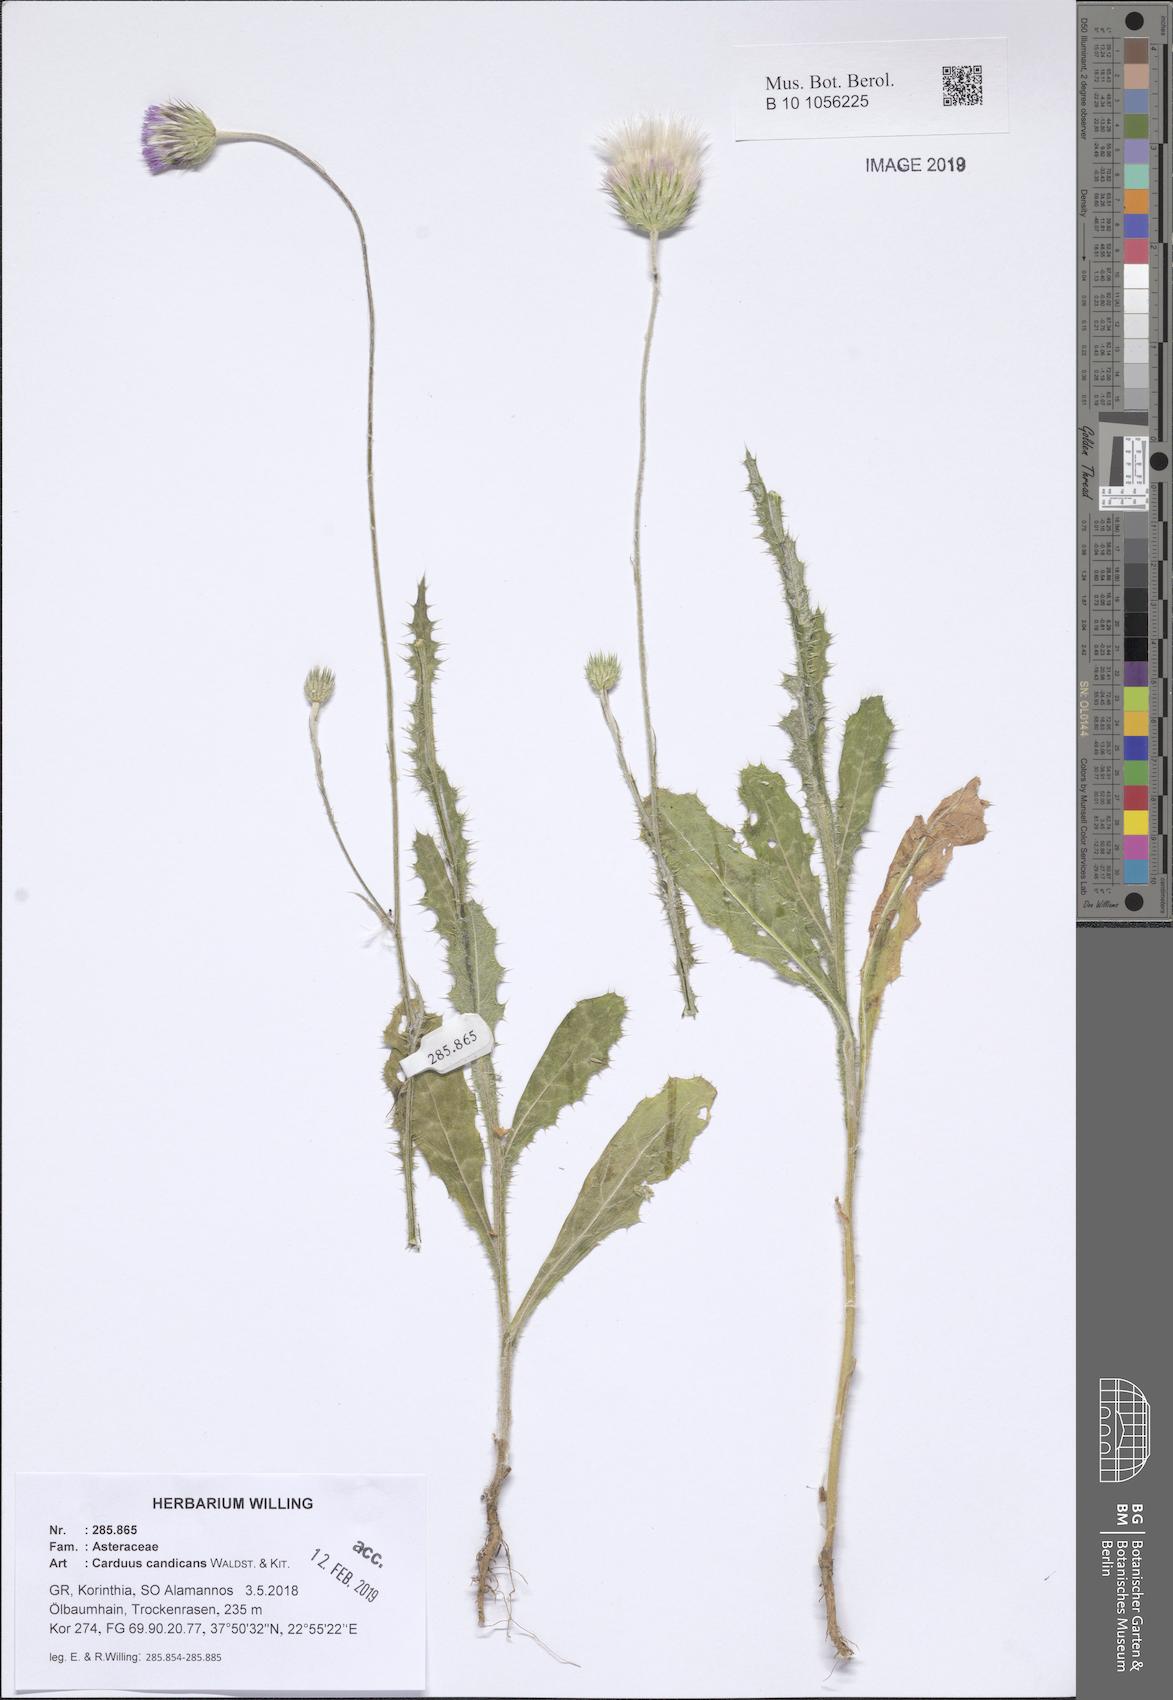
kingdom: Plantae
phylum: Tracheophyta
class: Magnoliopsida
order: Asterales
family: Asteraceae
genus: Carduus
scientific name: Carduus candicans
